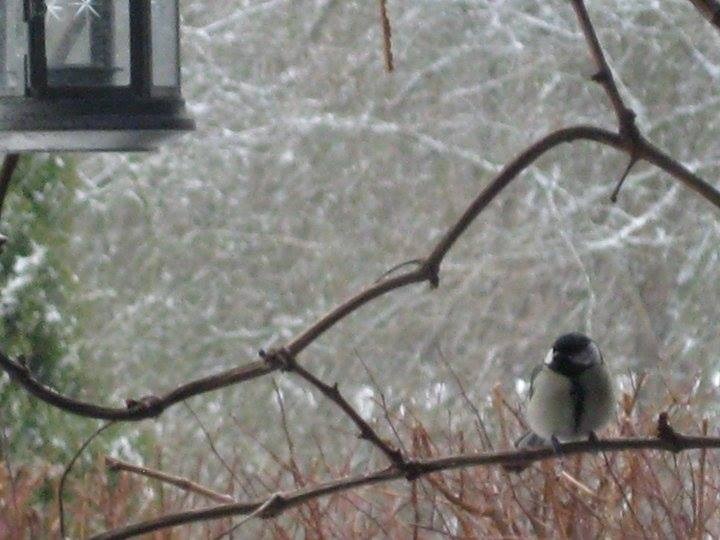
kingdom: Animalia
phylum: Chordata
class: Aves
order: Passeriformes
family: Paridae
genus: Parus
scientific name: Parus major
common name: Musvit
